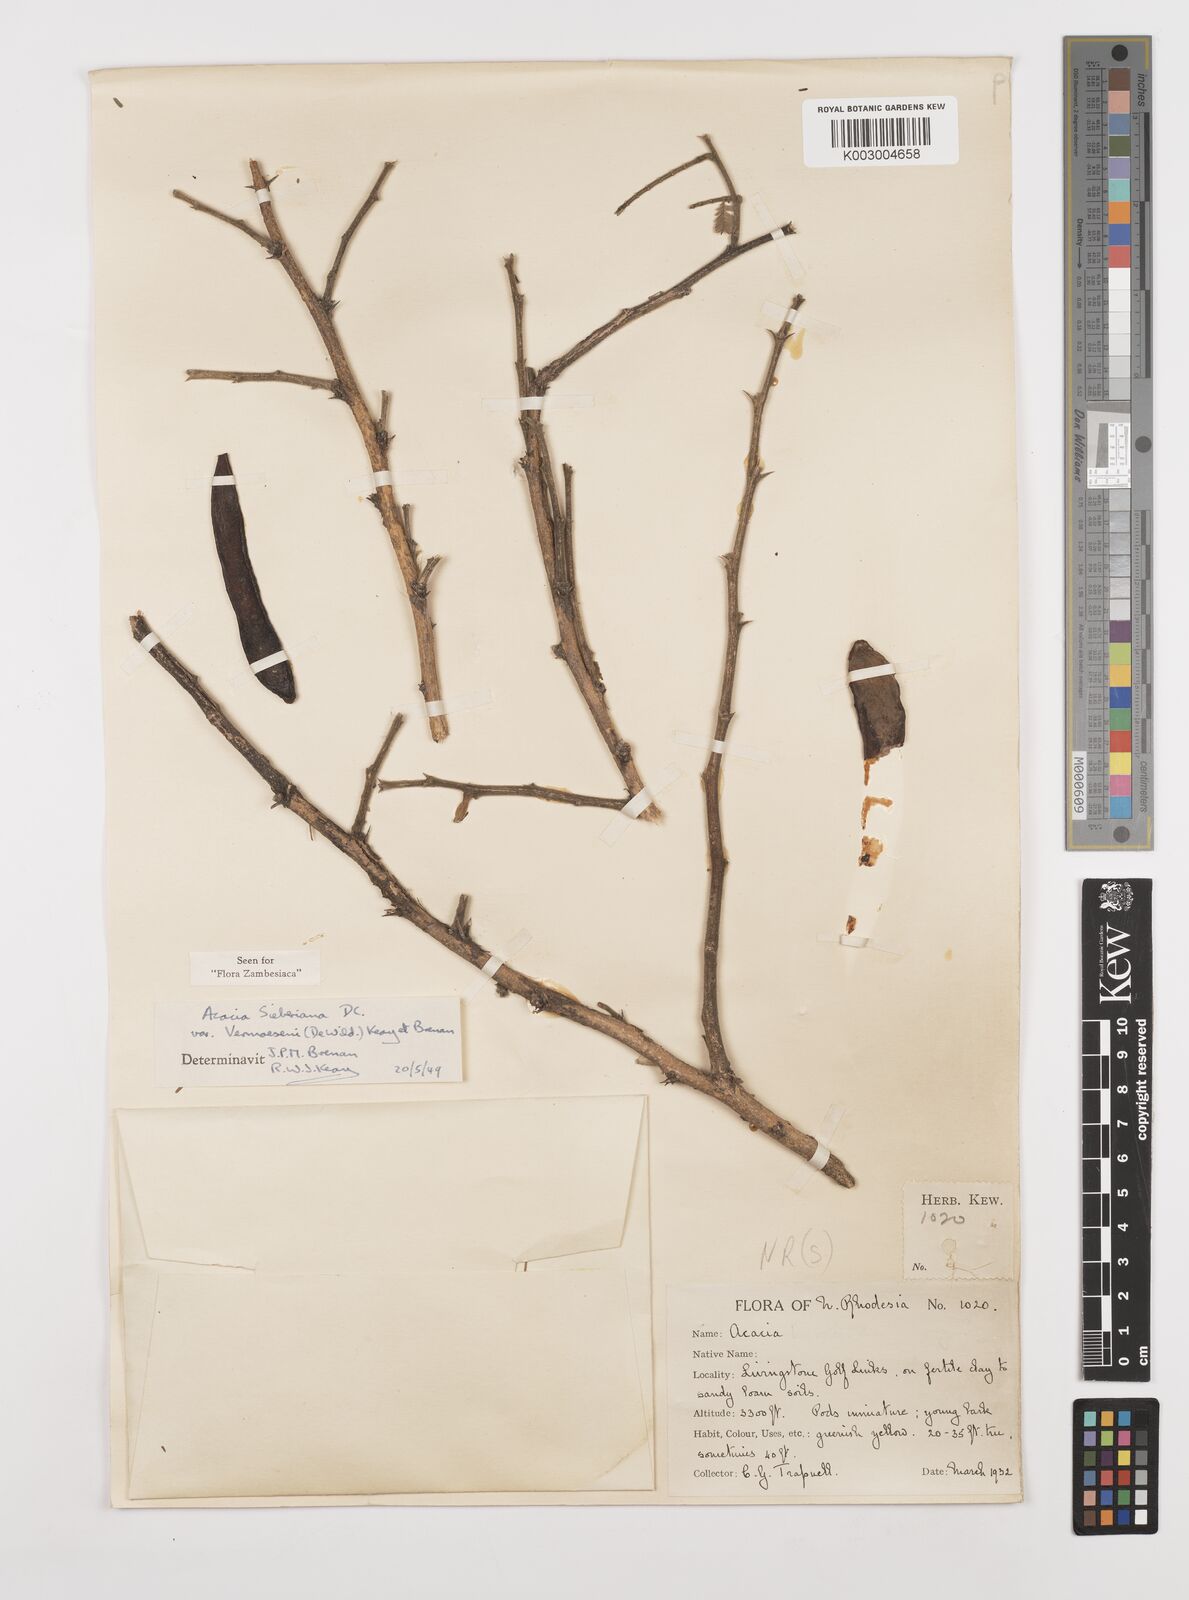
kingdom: Plantae
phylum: Tracheophyta
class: Magnoliopsida
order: Fabales
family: Fabaceae
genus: Vachellia
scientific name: Vachellia sieberiana
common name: Flat-topped thorn
